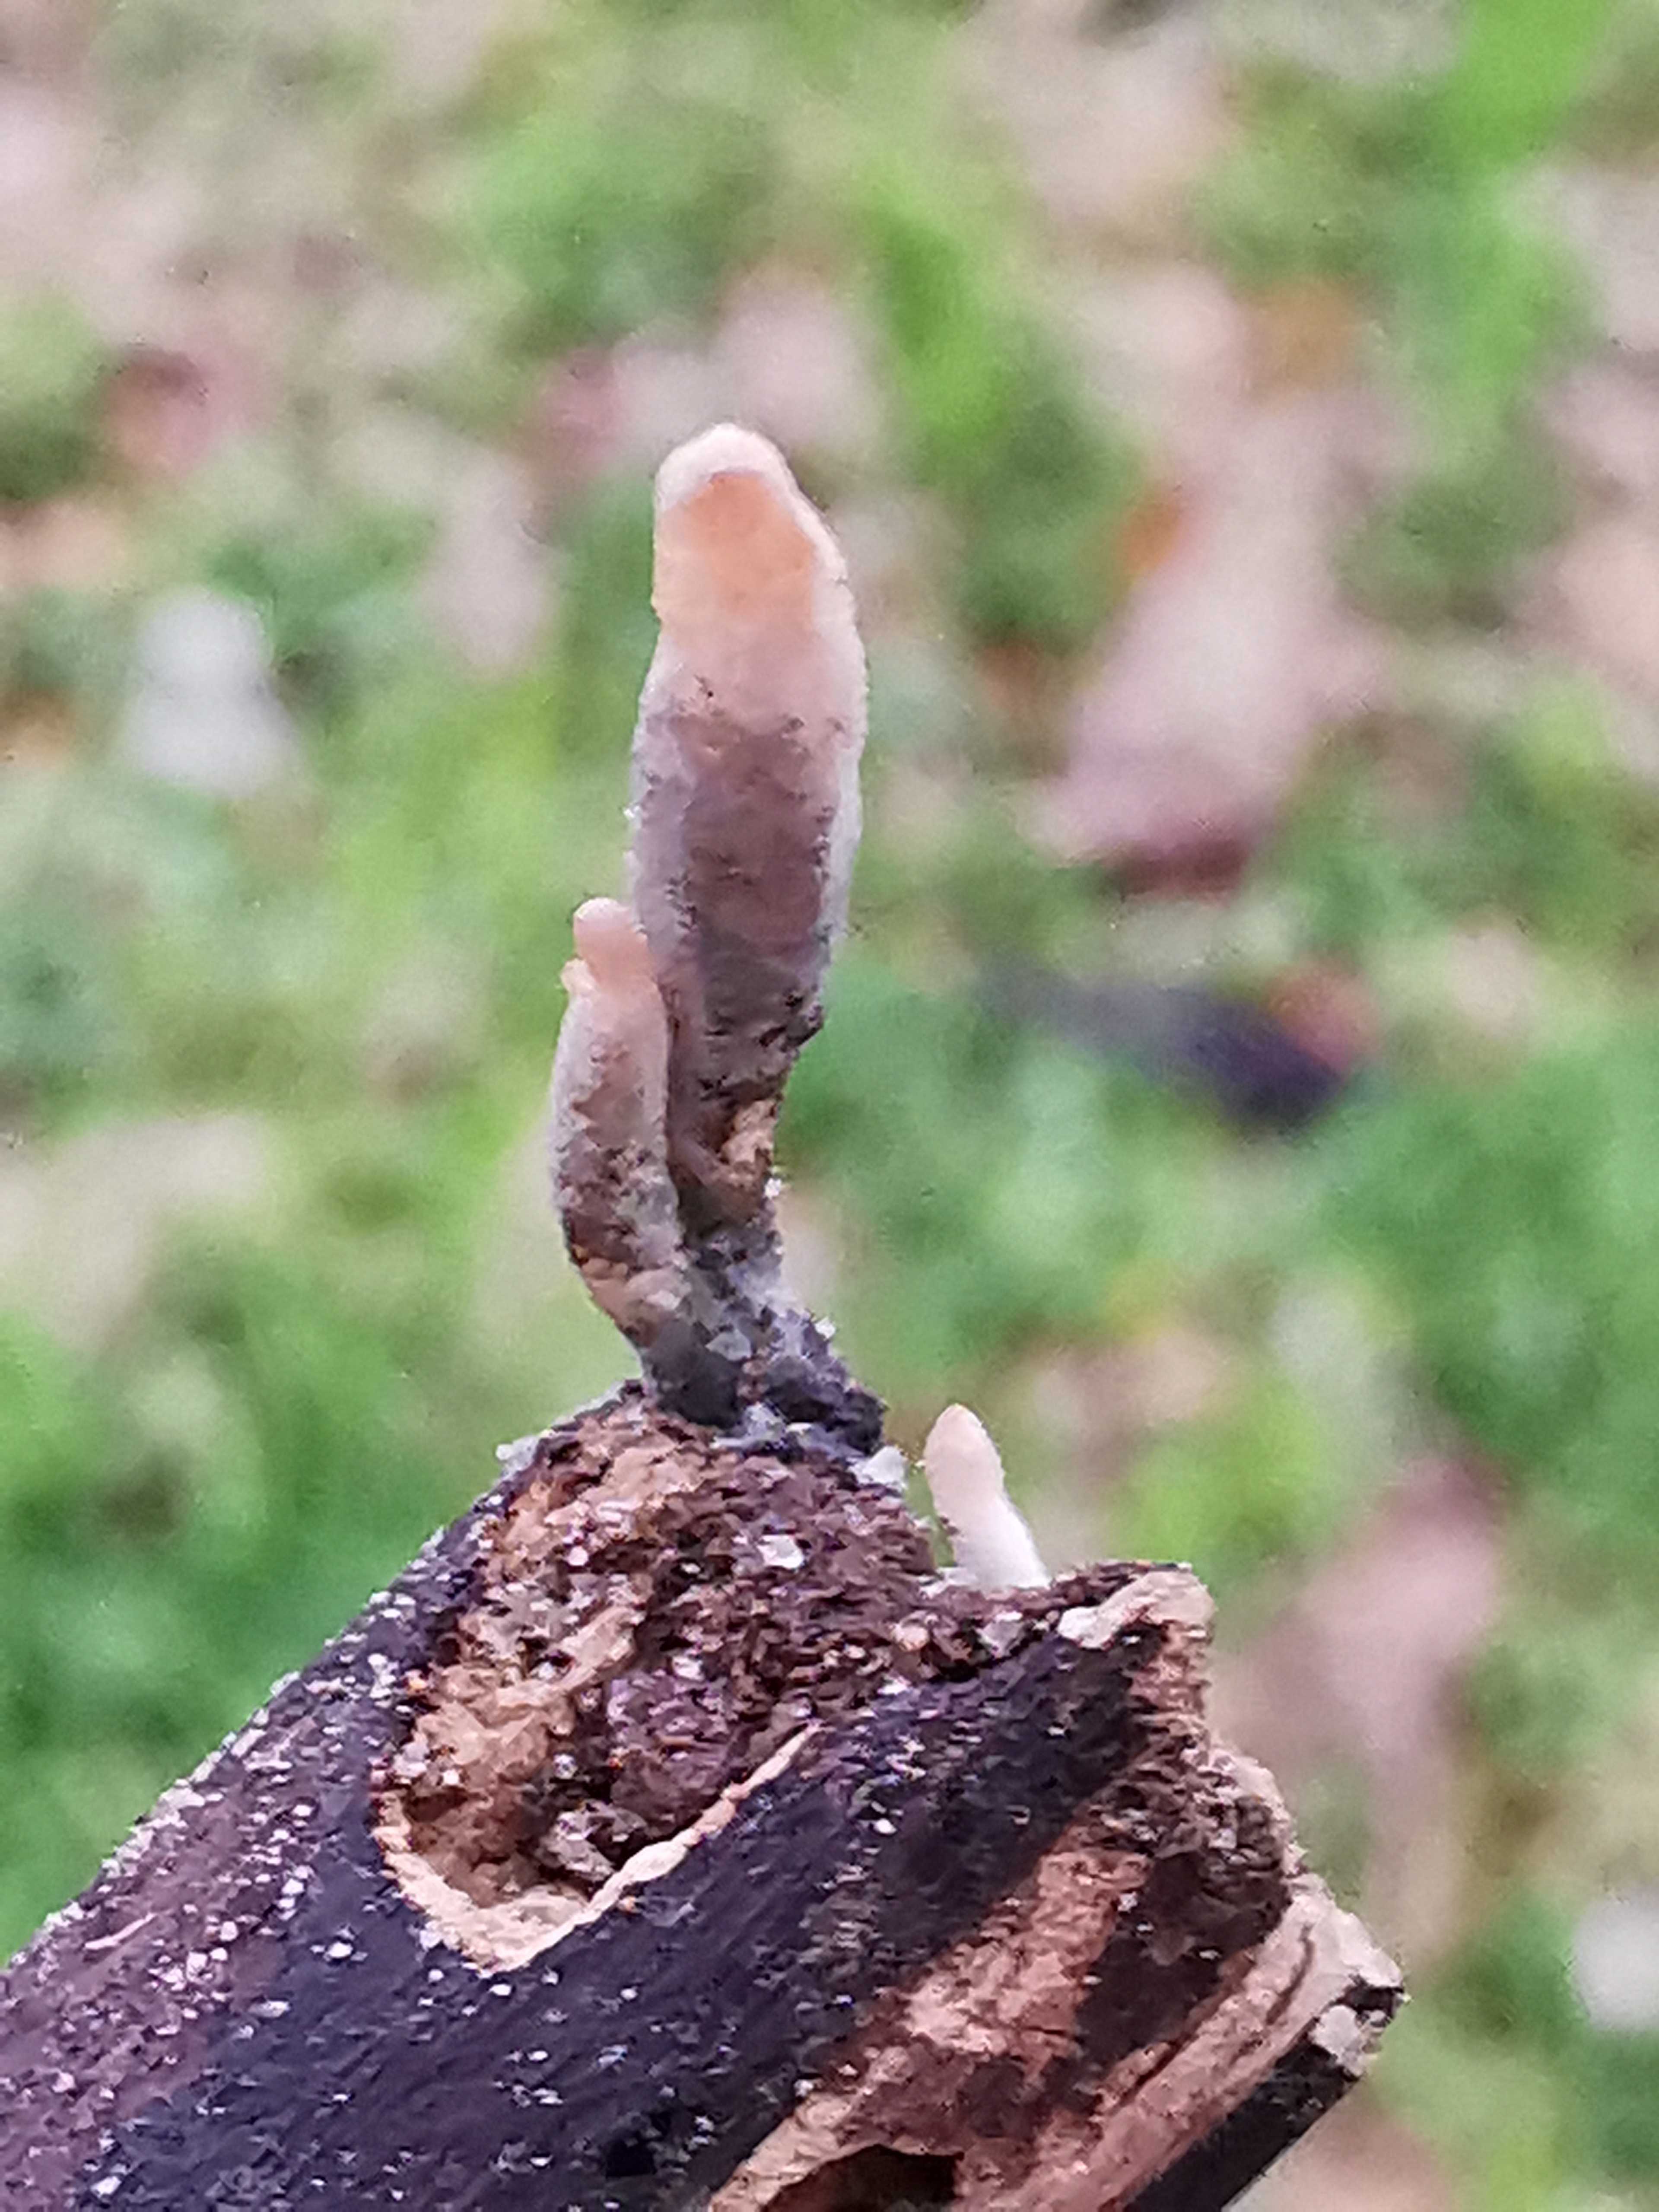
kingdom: Fungi
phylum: Ascomycota
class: Sordariomycetes
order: Xylariales
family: Xylariaceae
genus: Xylaria
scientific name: Xylaria longipes
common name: slank stødsvamp
